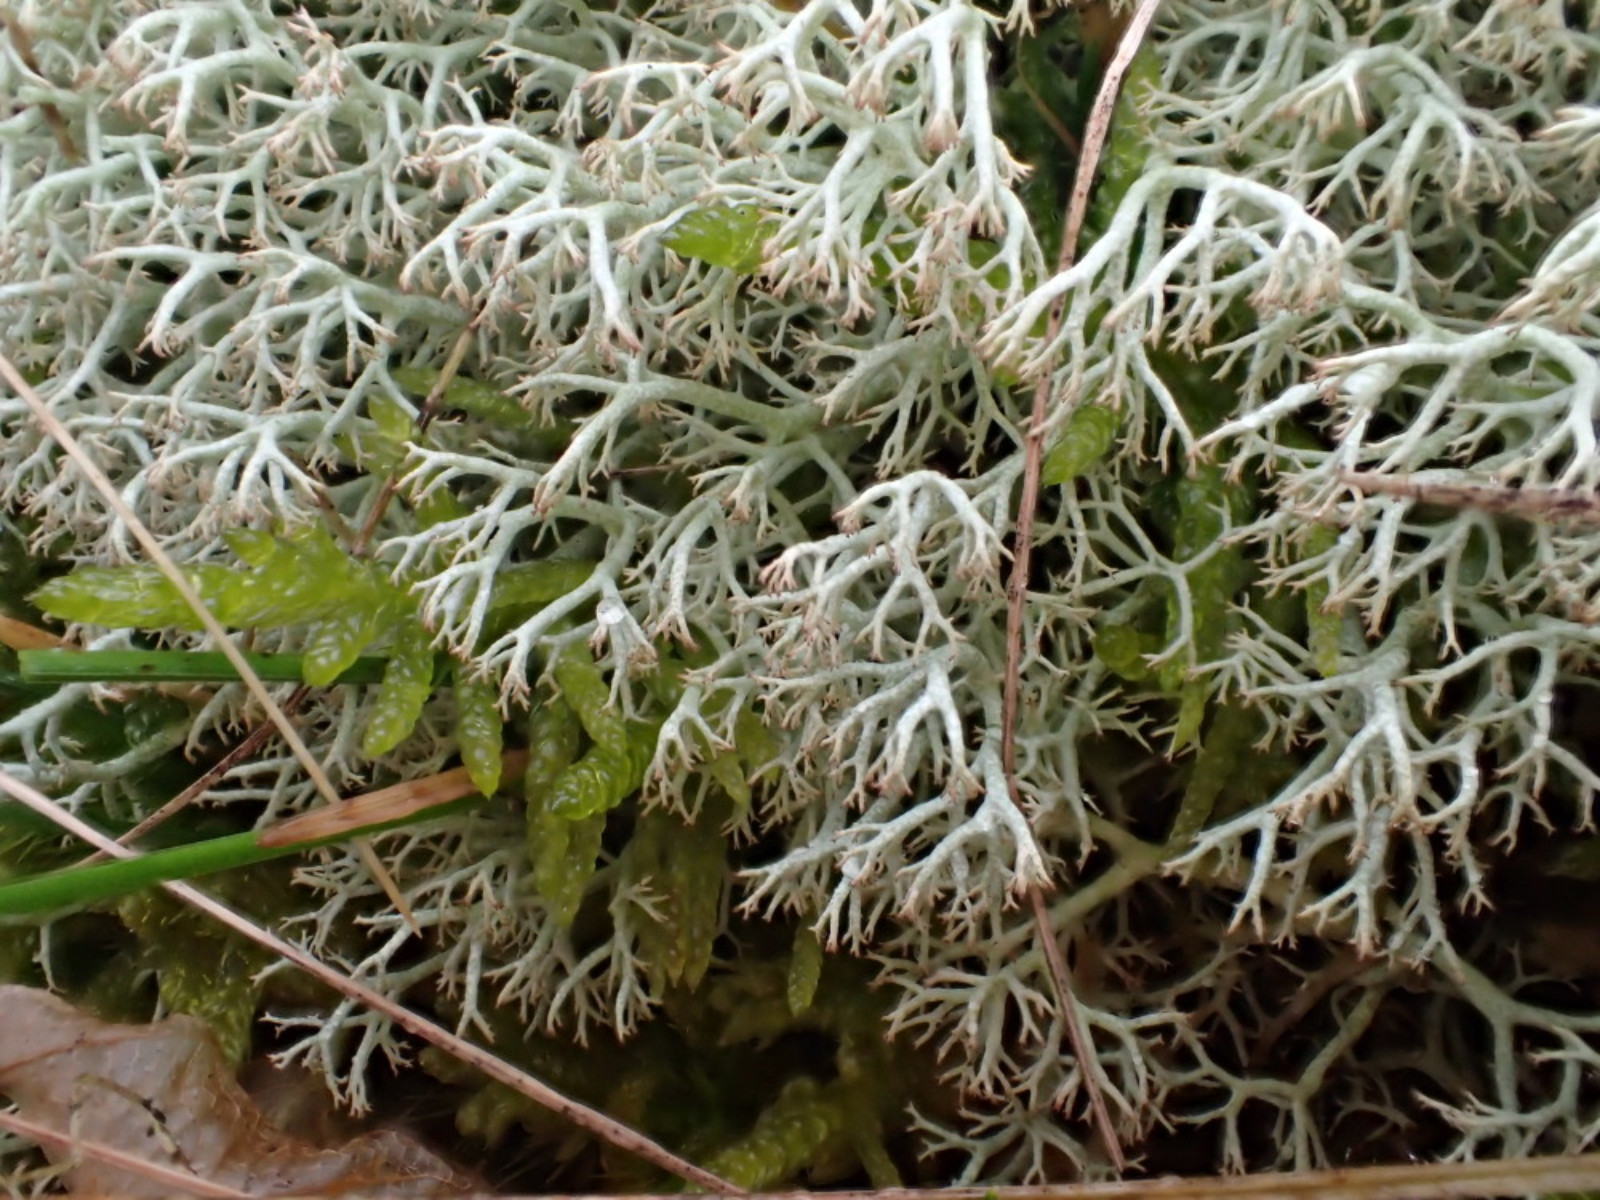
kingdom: Fungi
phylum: Ascomycota
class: Lecanoromycetes
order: Lecanorales
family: Cladoniaceae
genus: Cladonia
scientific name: Cladonia ciliata
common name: spinkel rensdyrlav
